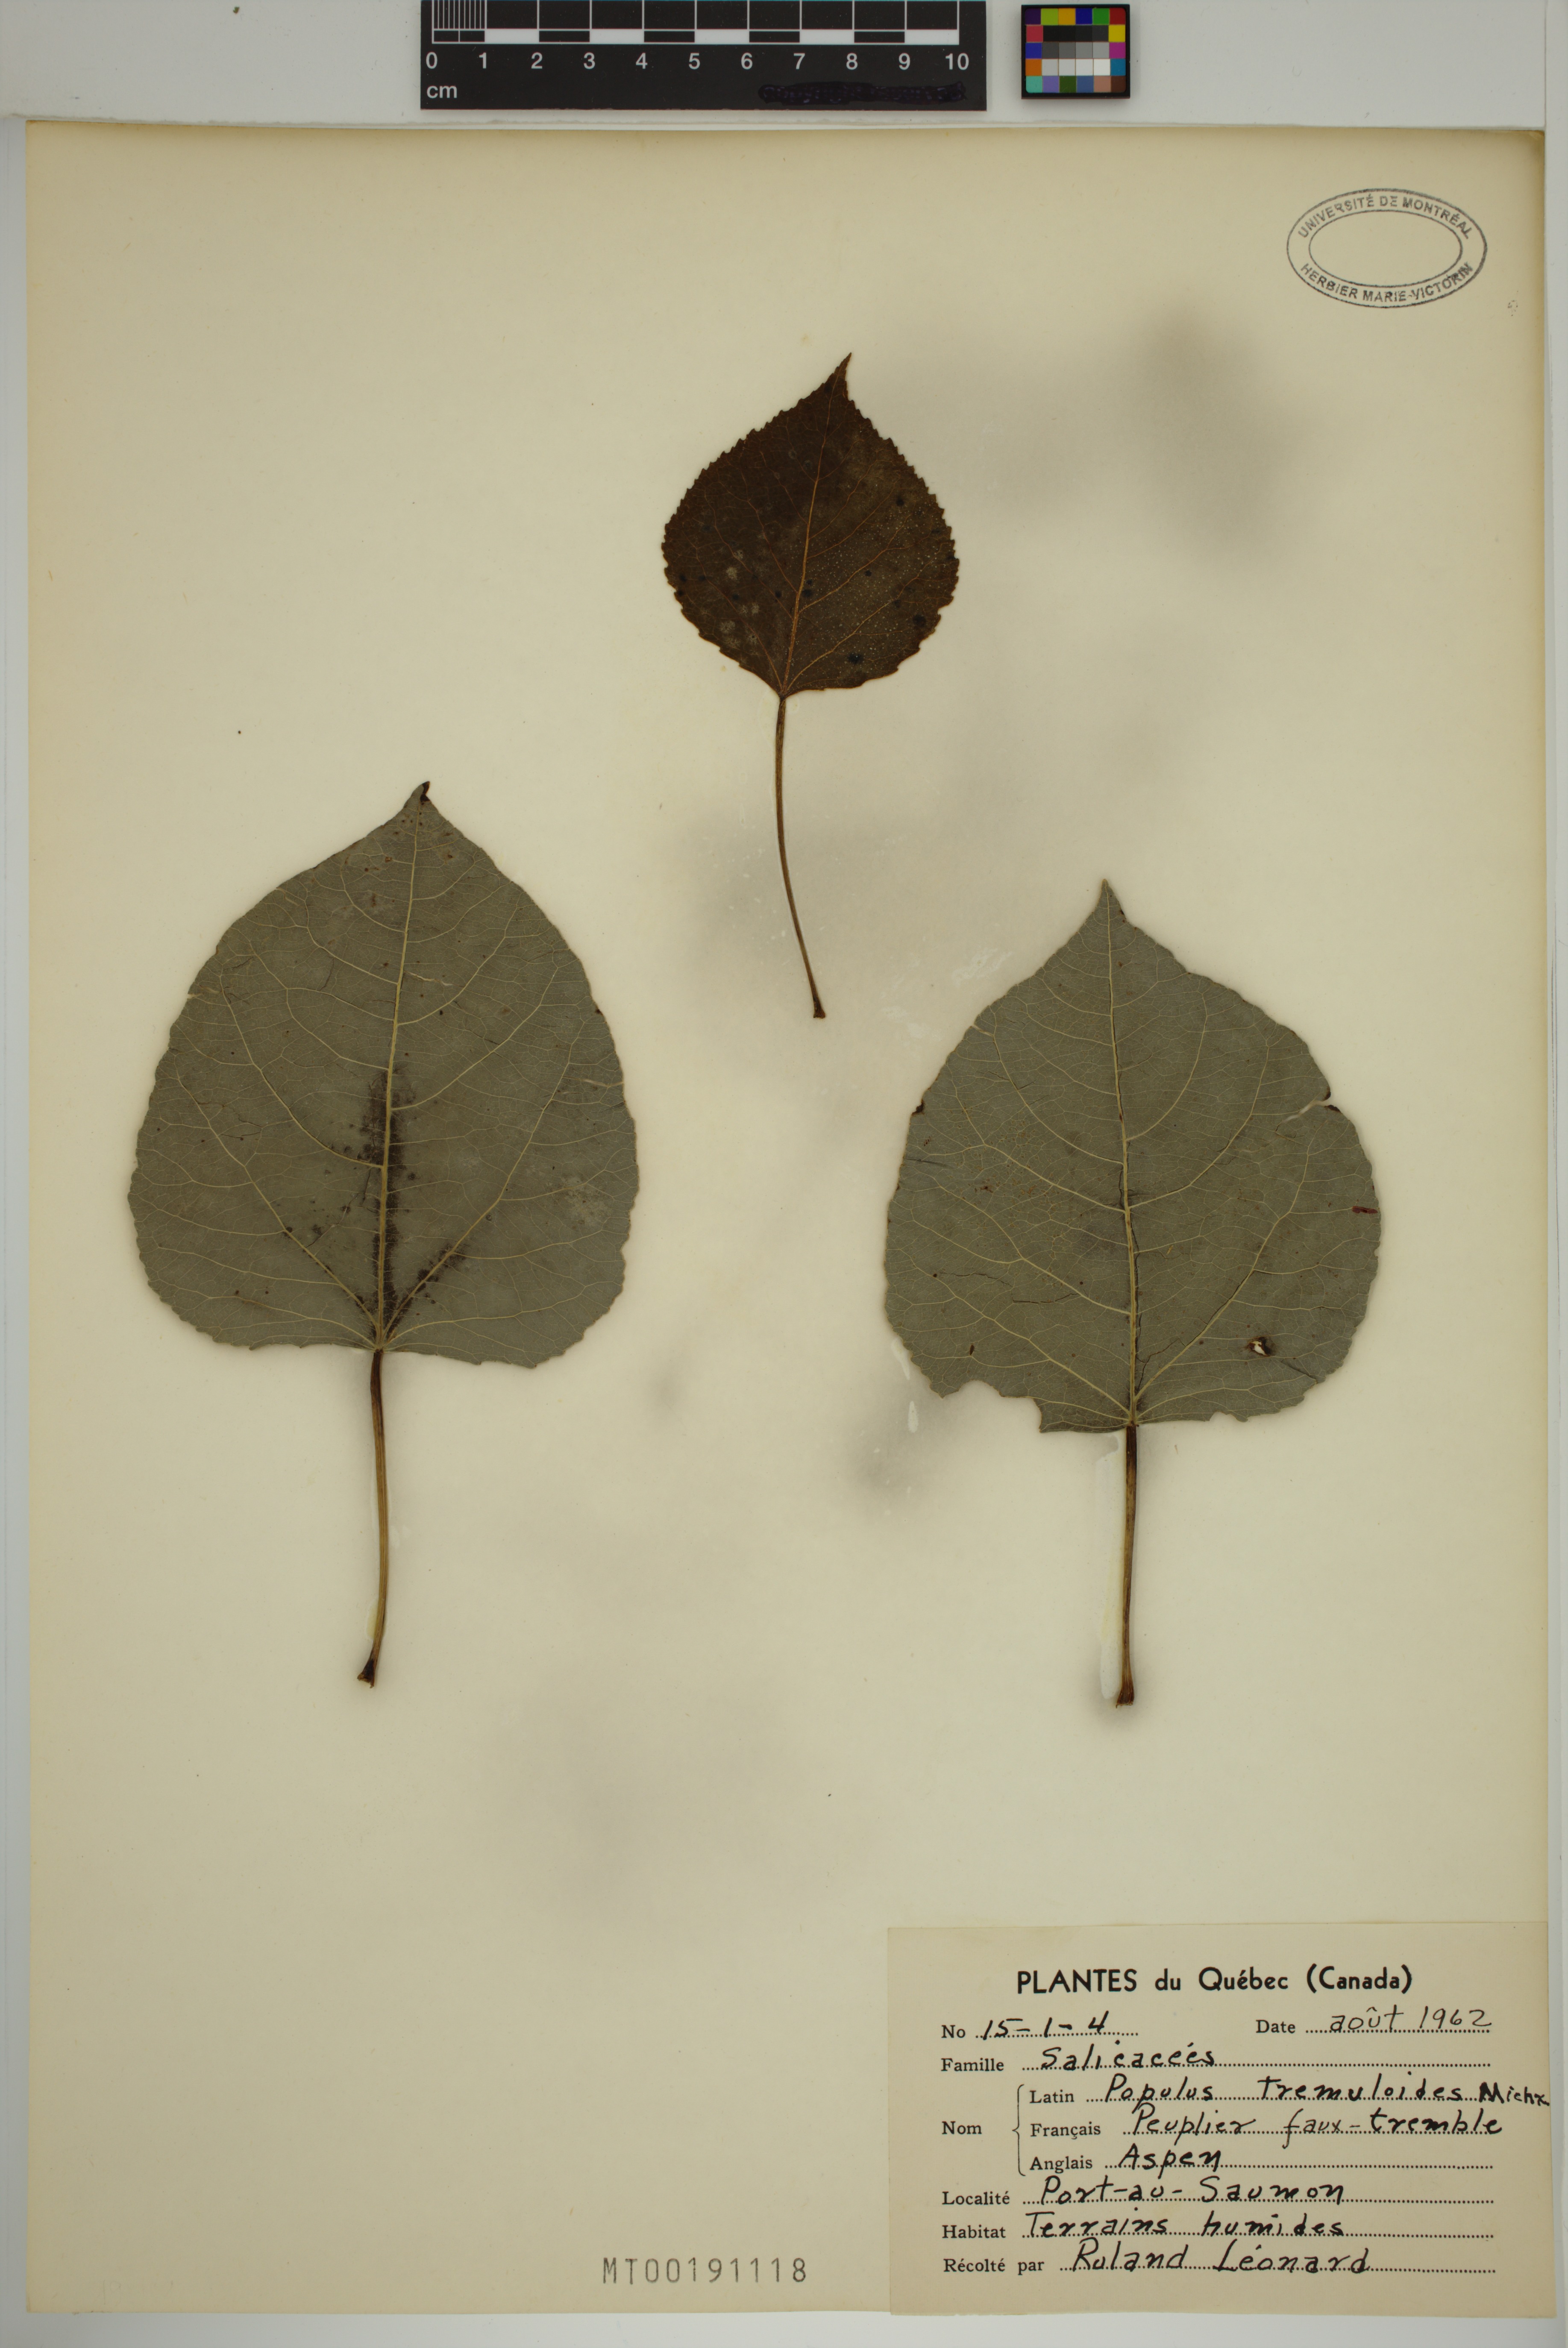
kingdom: Plantae
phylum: Tracheophyta
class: Magnoliopsida
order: Malpighiales
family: Salicaceae
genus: Populus
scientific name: Populus tremuloides
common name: Quaking aspen
